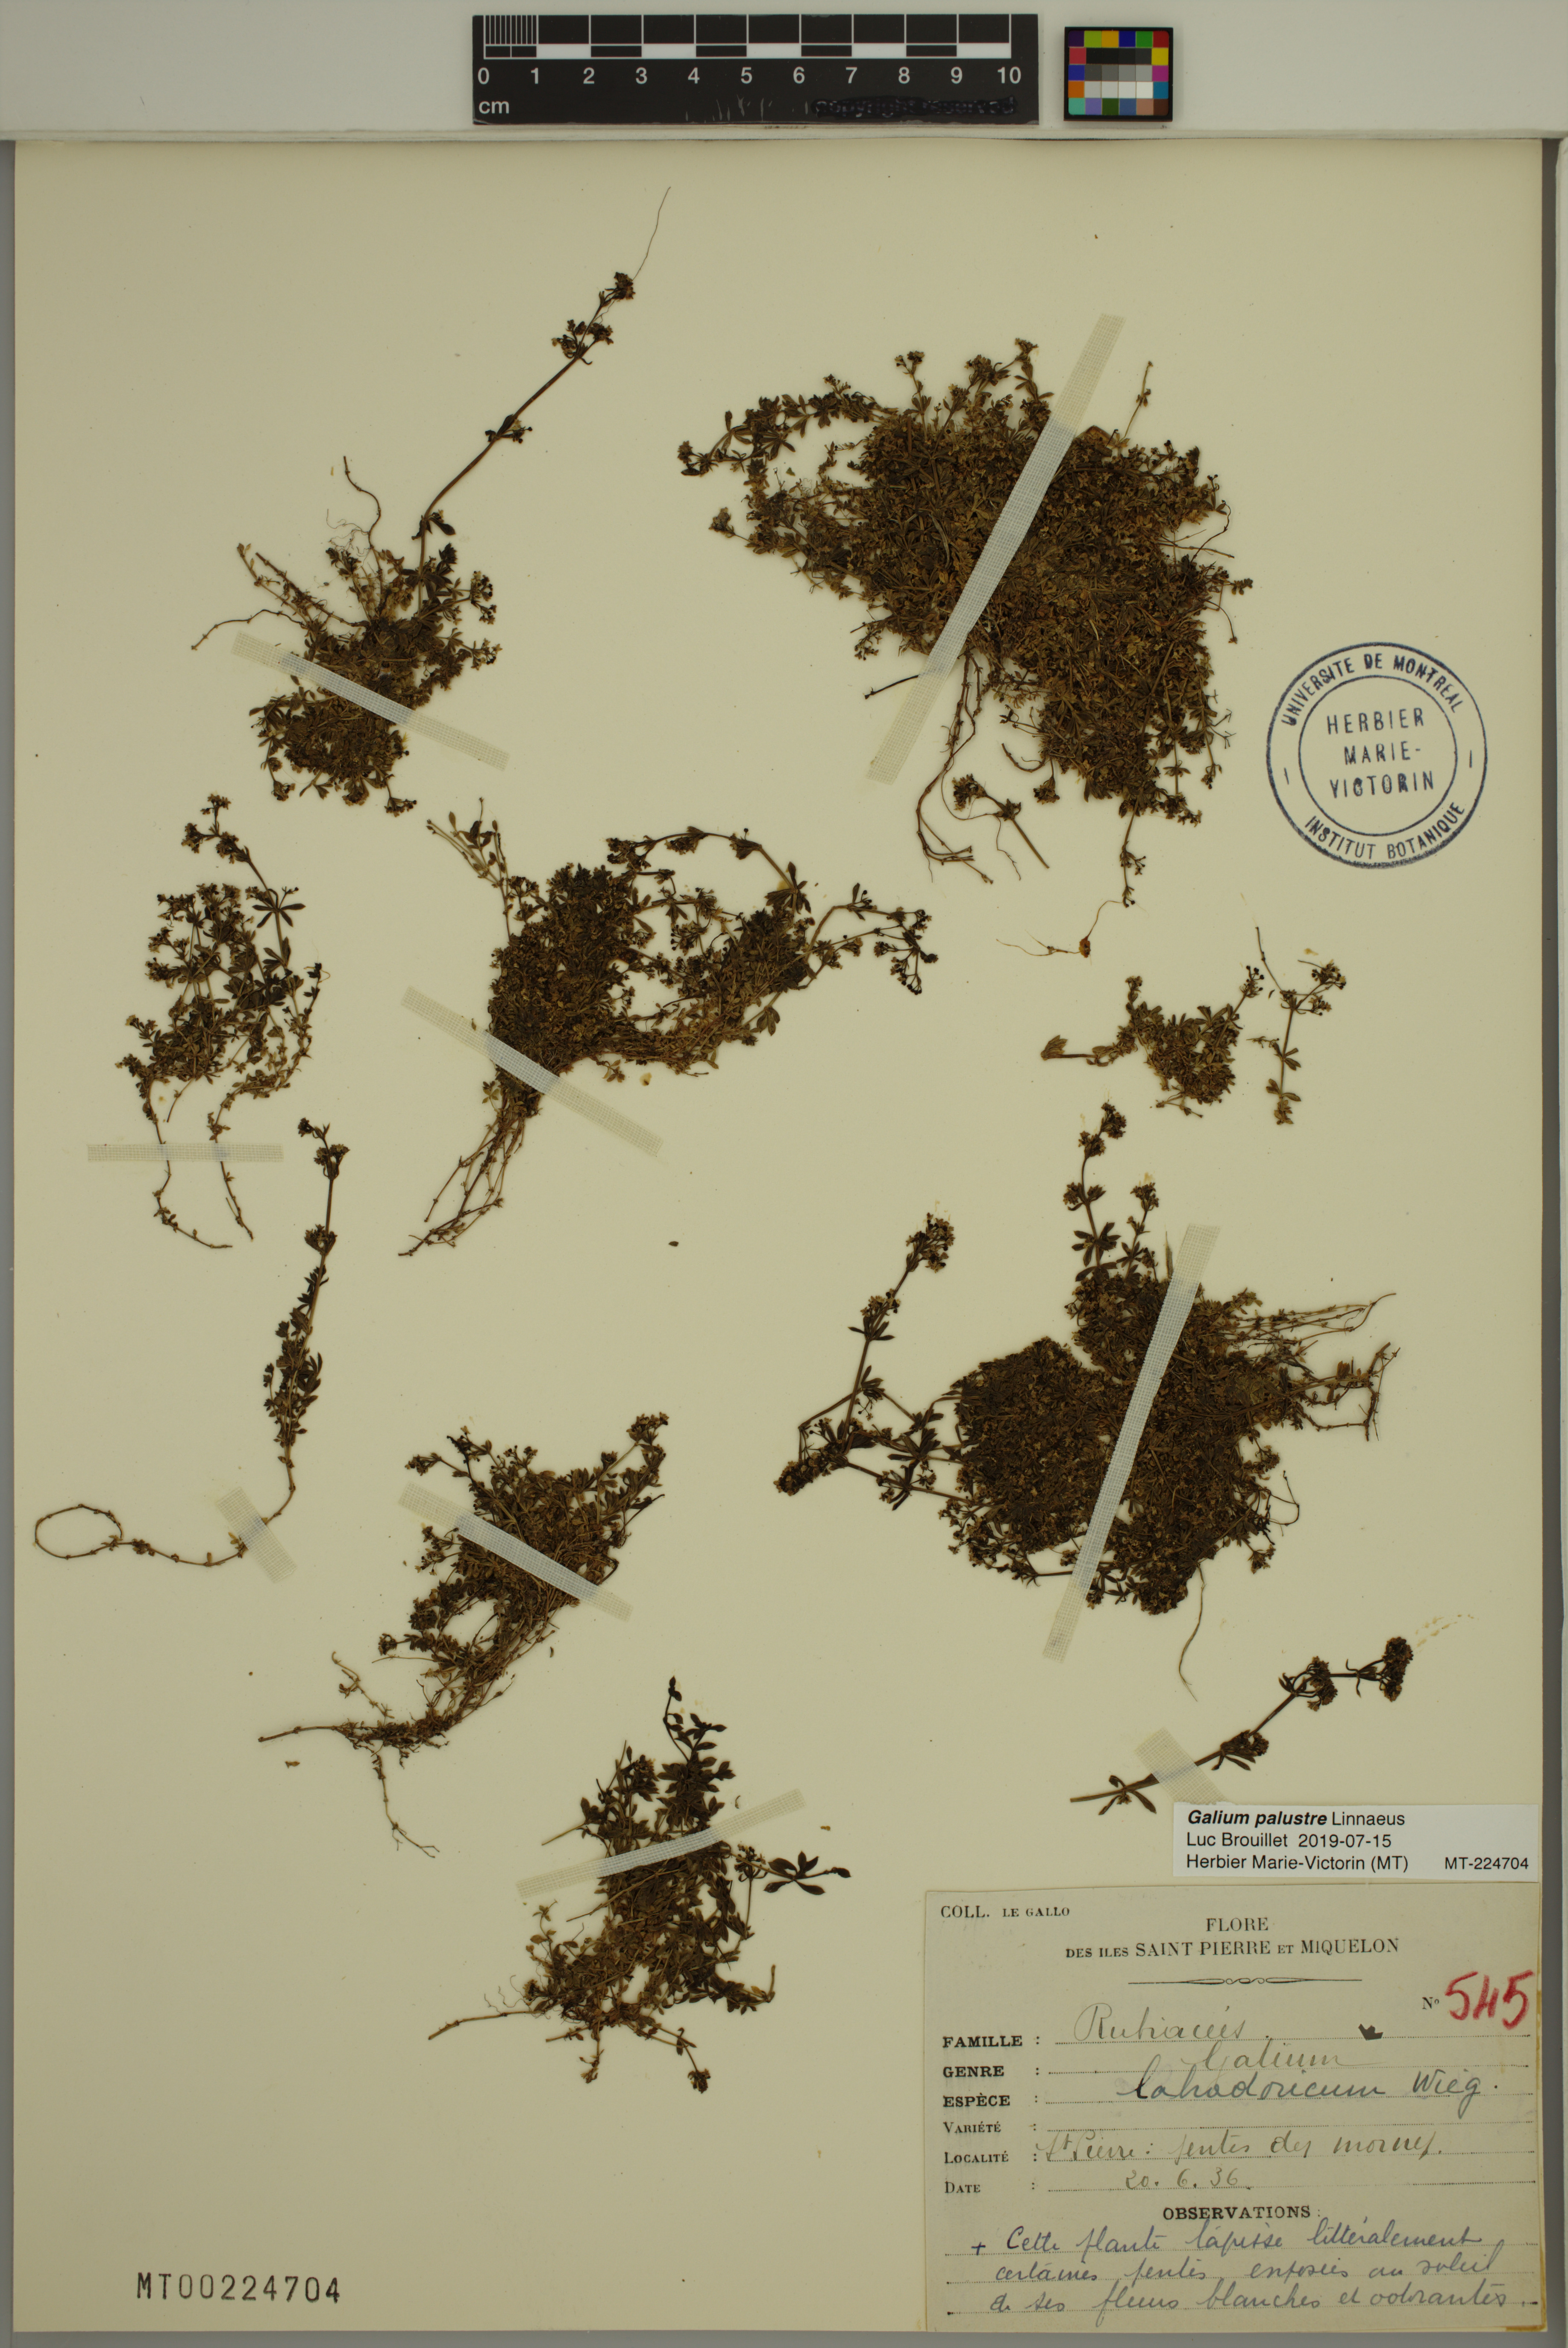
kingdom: Plantae
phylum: Tracheophyta
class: Magnoliopsida
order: Gentianales
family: Rubiaceae
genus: Galium
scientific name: Galium palustre
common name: Common marsh-bedstraw
